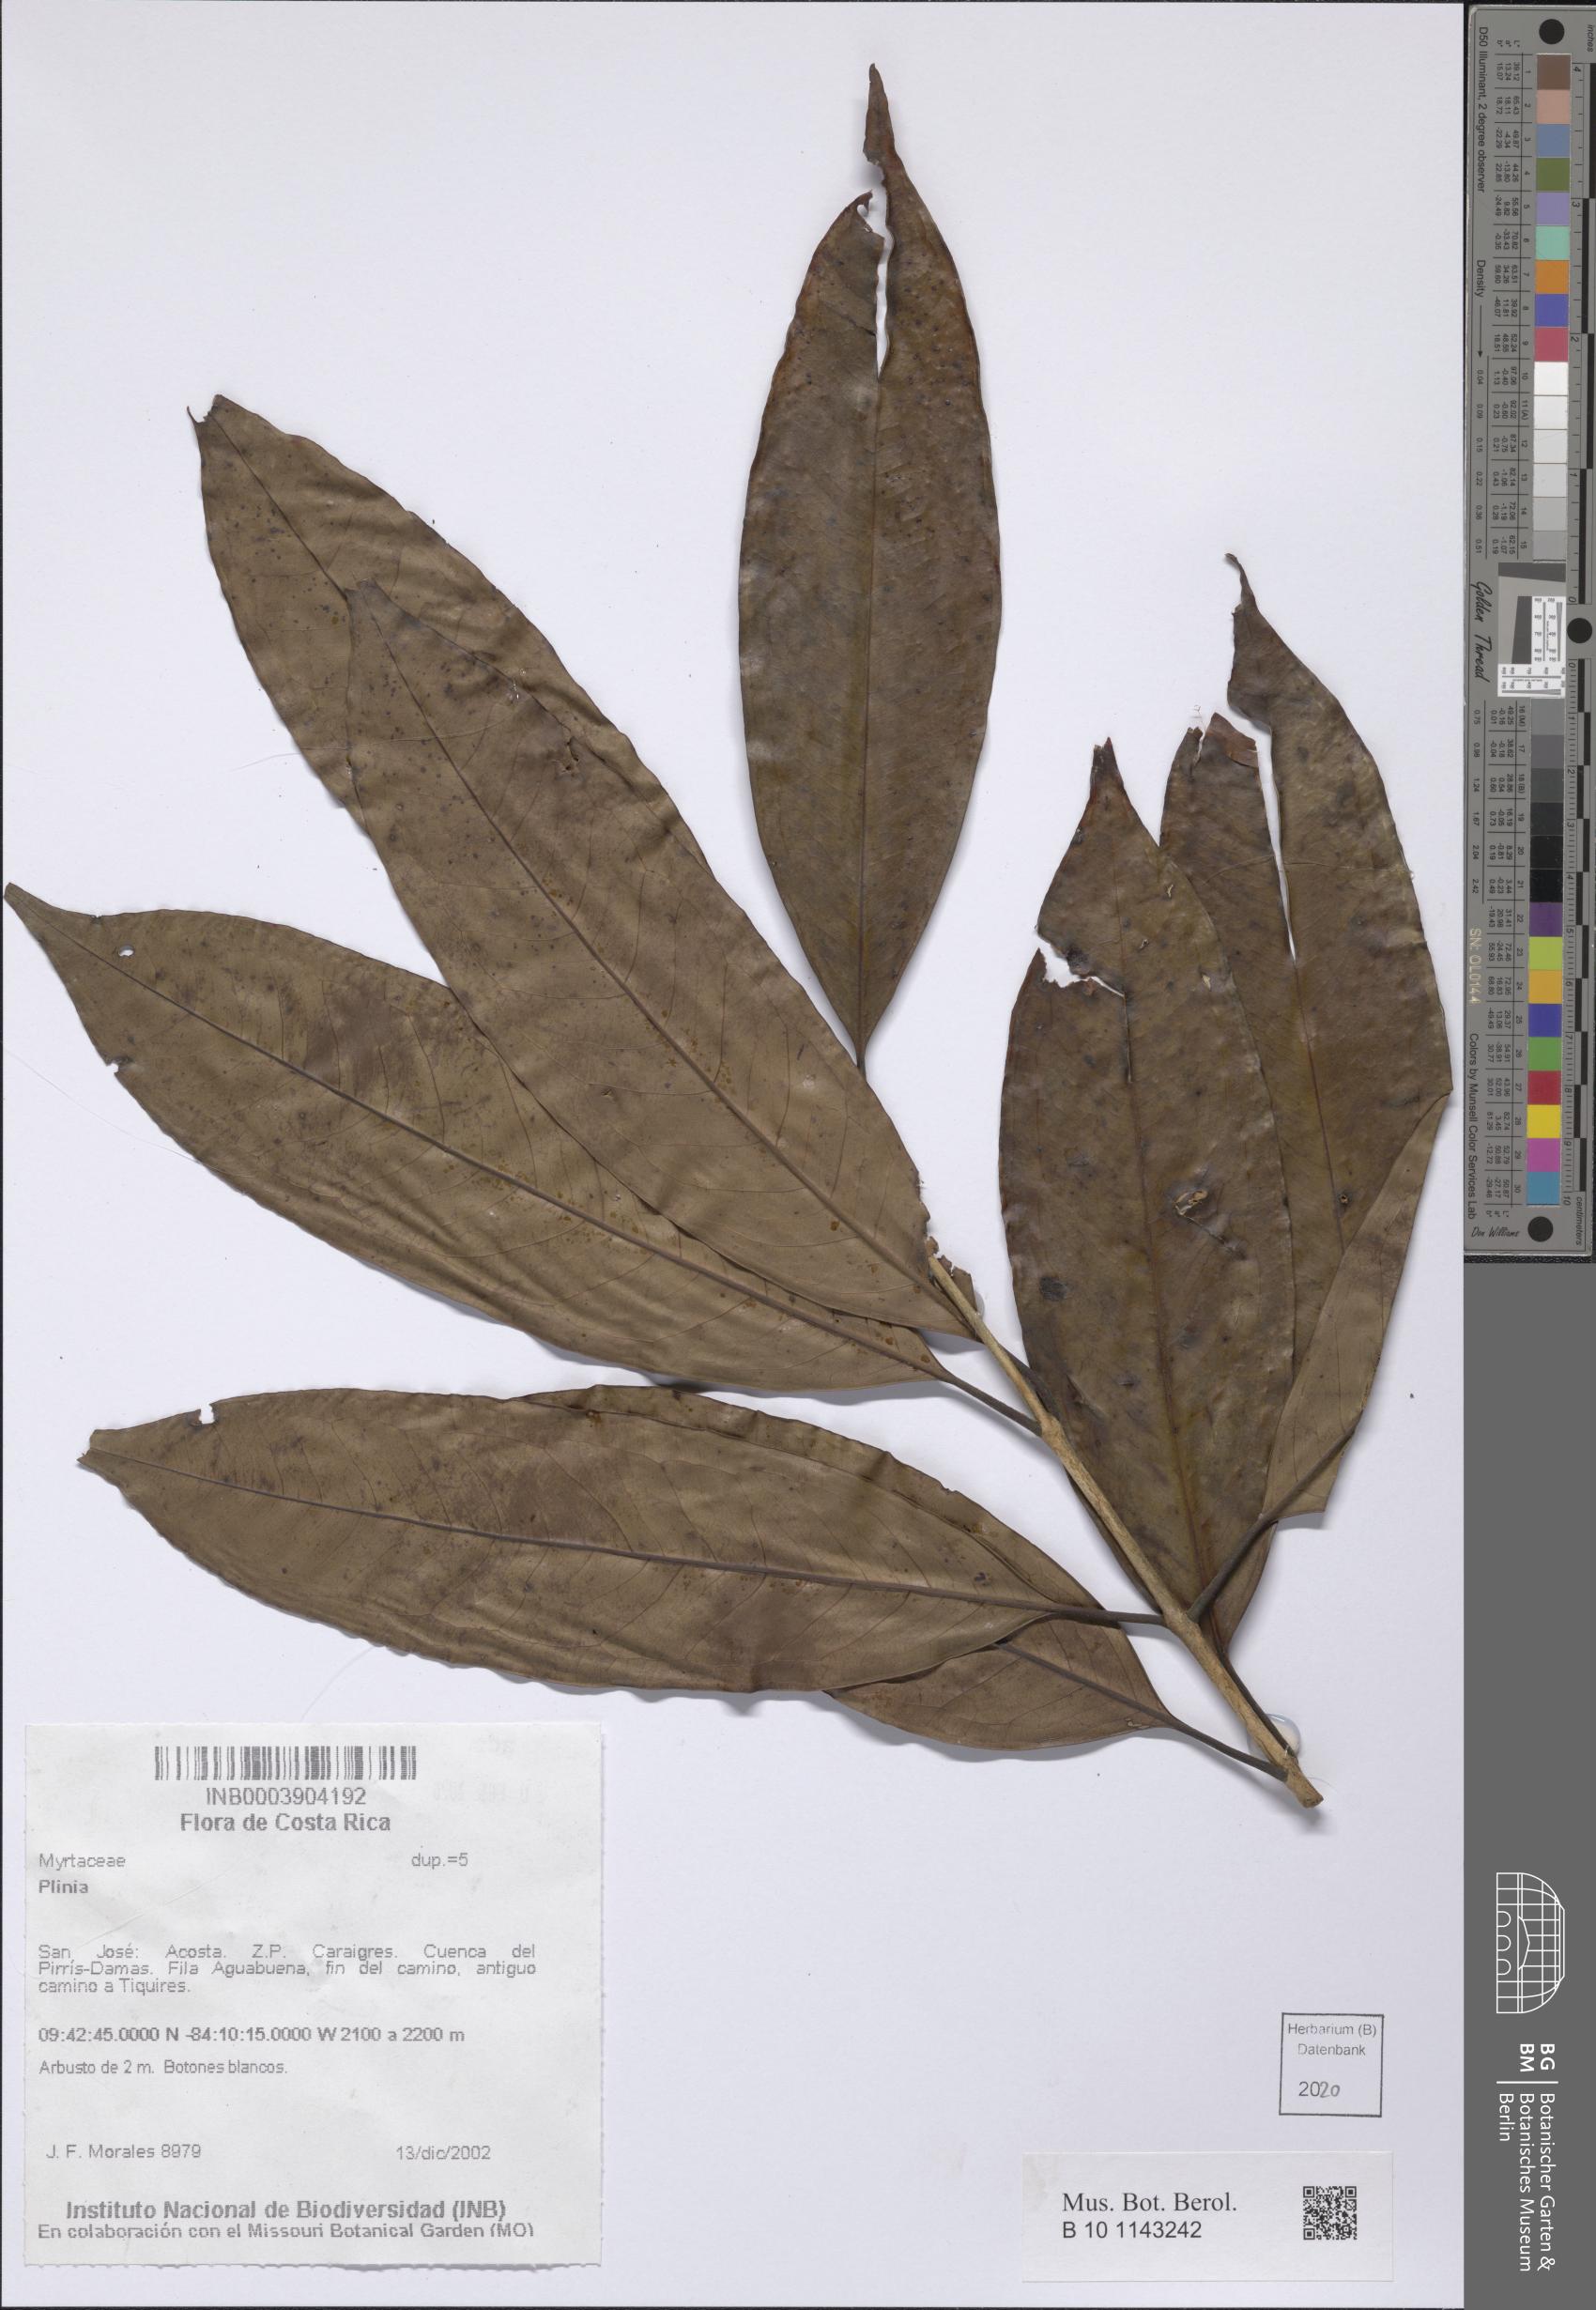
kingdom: Plantae
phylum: Tracheophyta
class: Magnoliopsida
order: Myrtales
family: Myrtaceae
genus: Plinia
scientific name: Plinia
